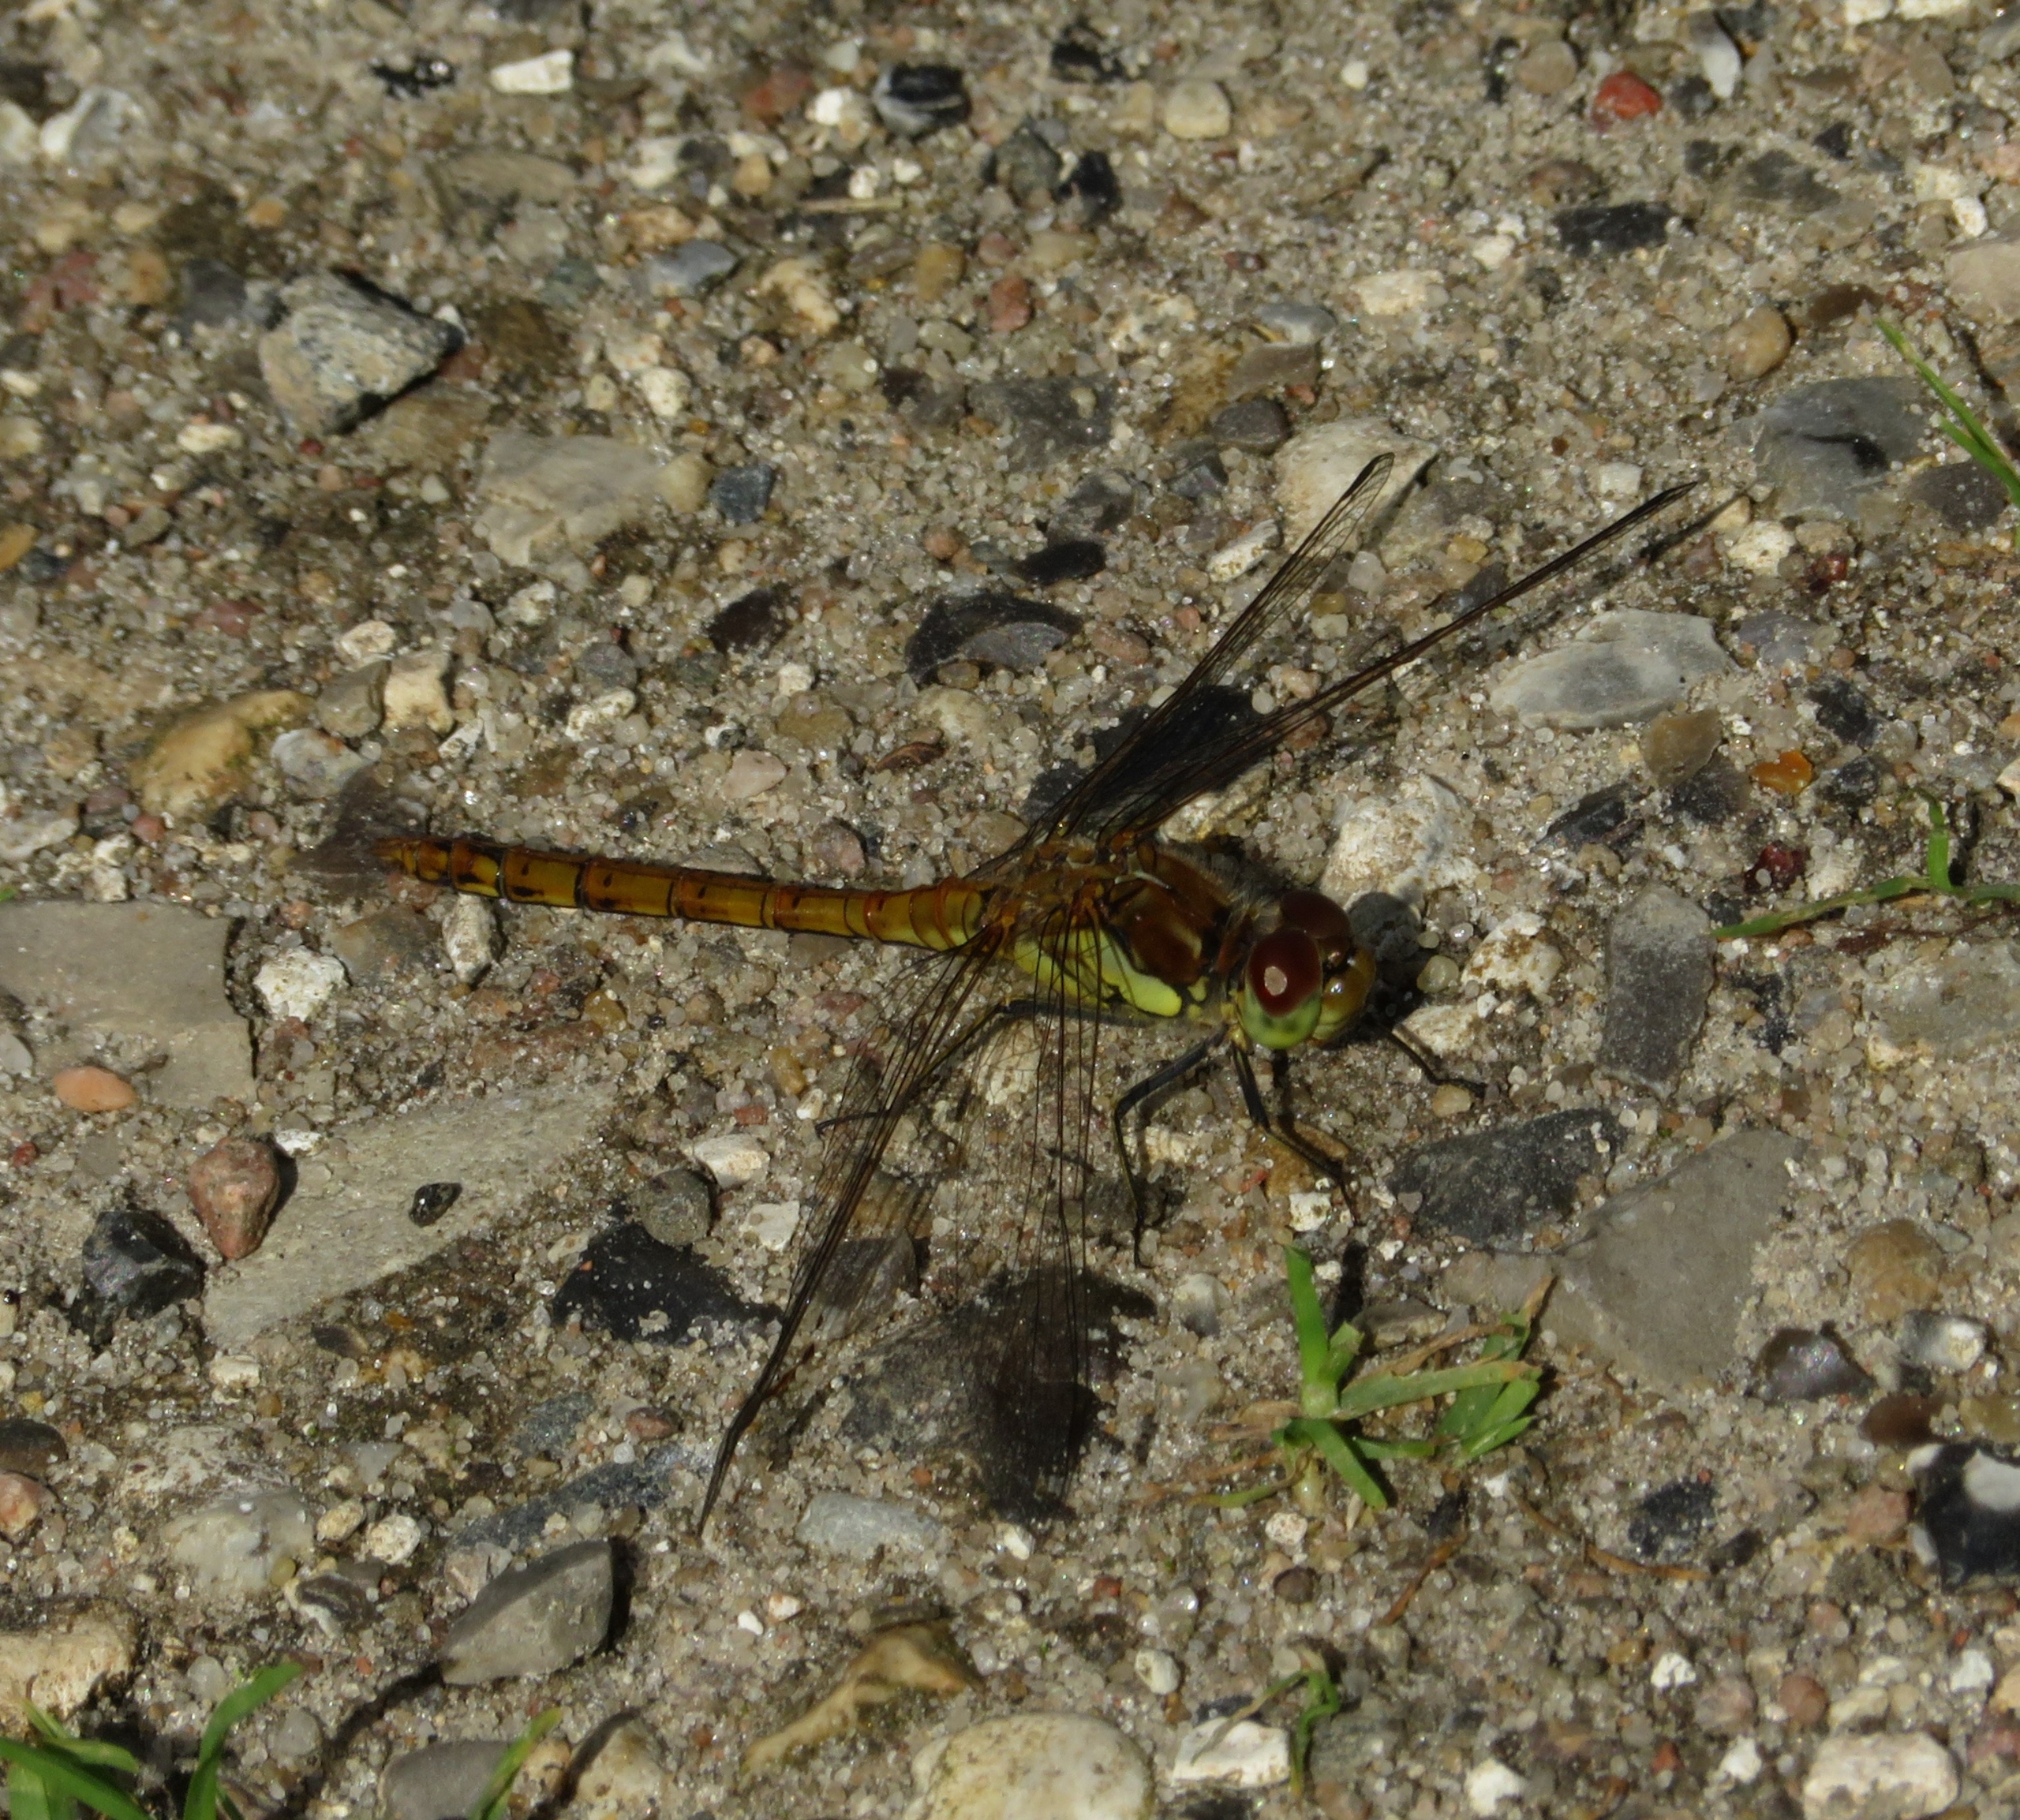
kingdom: Animalia
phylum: Arthropoda
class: Insecta
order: Odonata
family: Libellulidae
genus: Sympetrum
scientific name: Sympetrum striolatum
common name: Stor hedelibel
